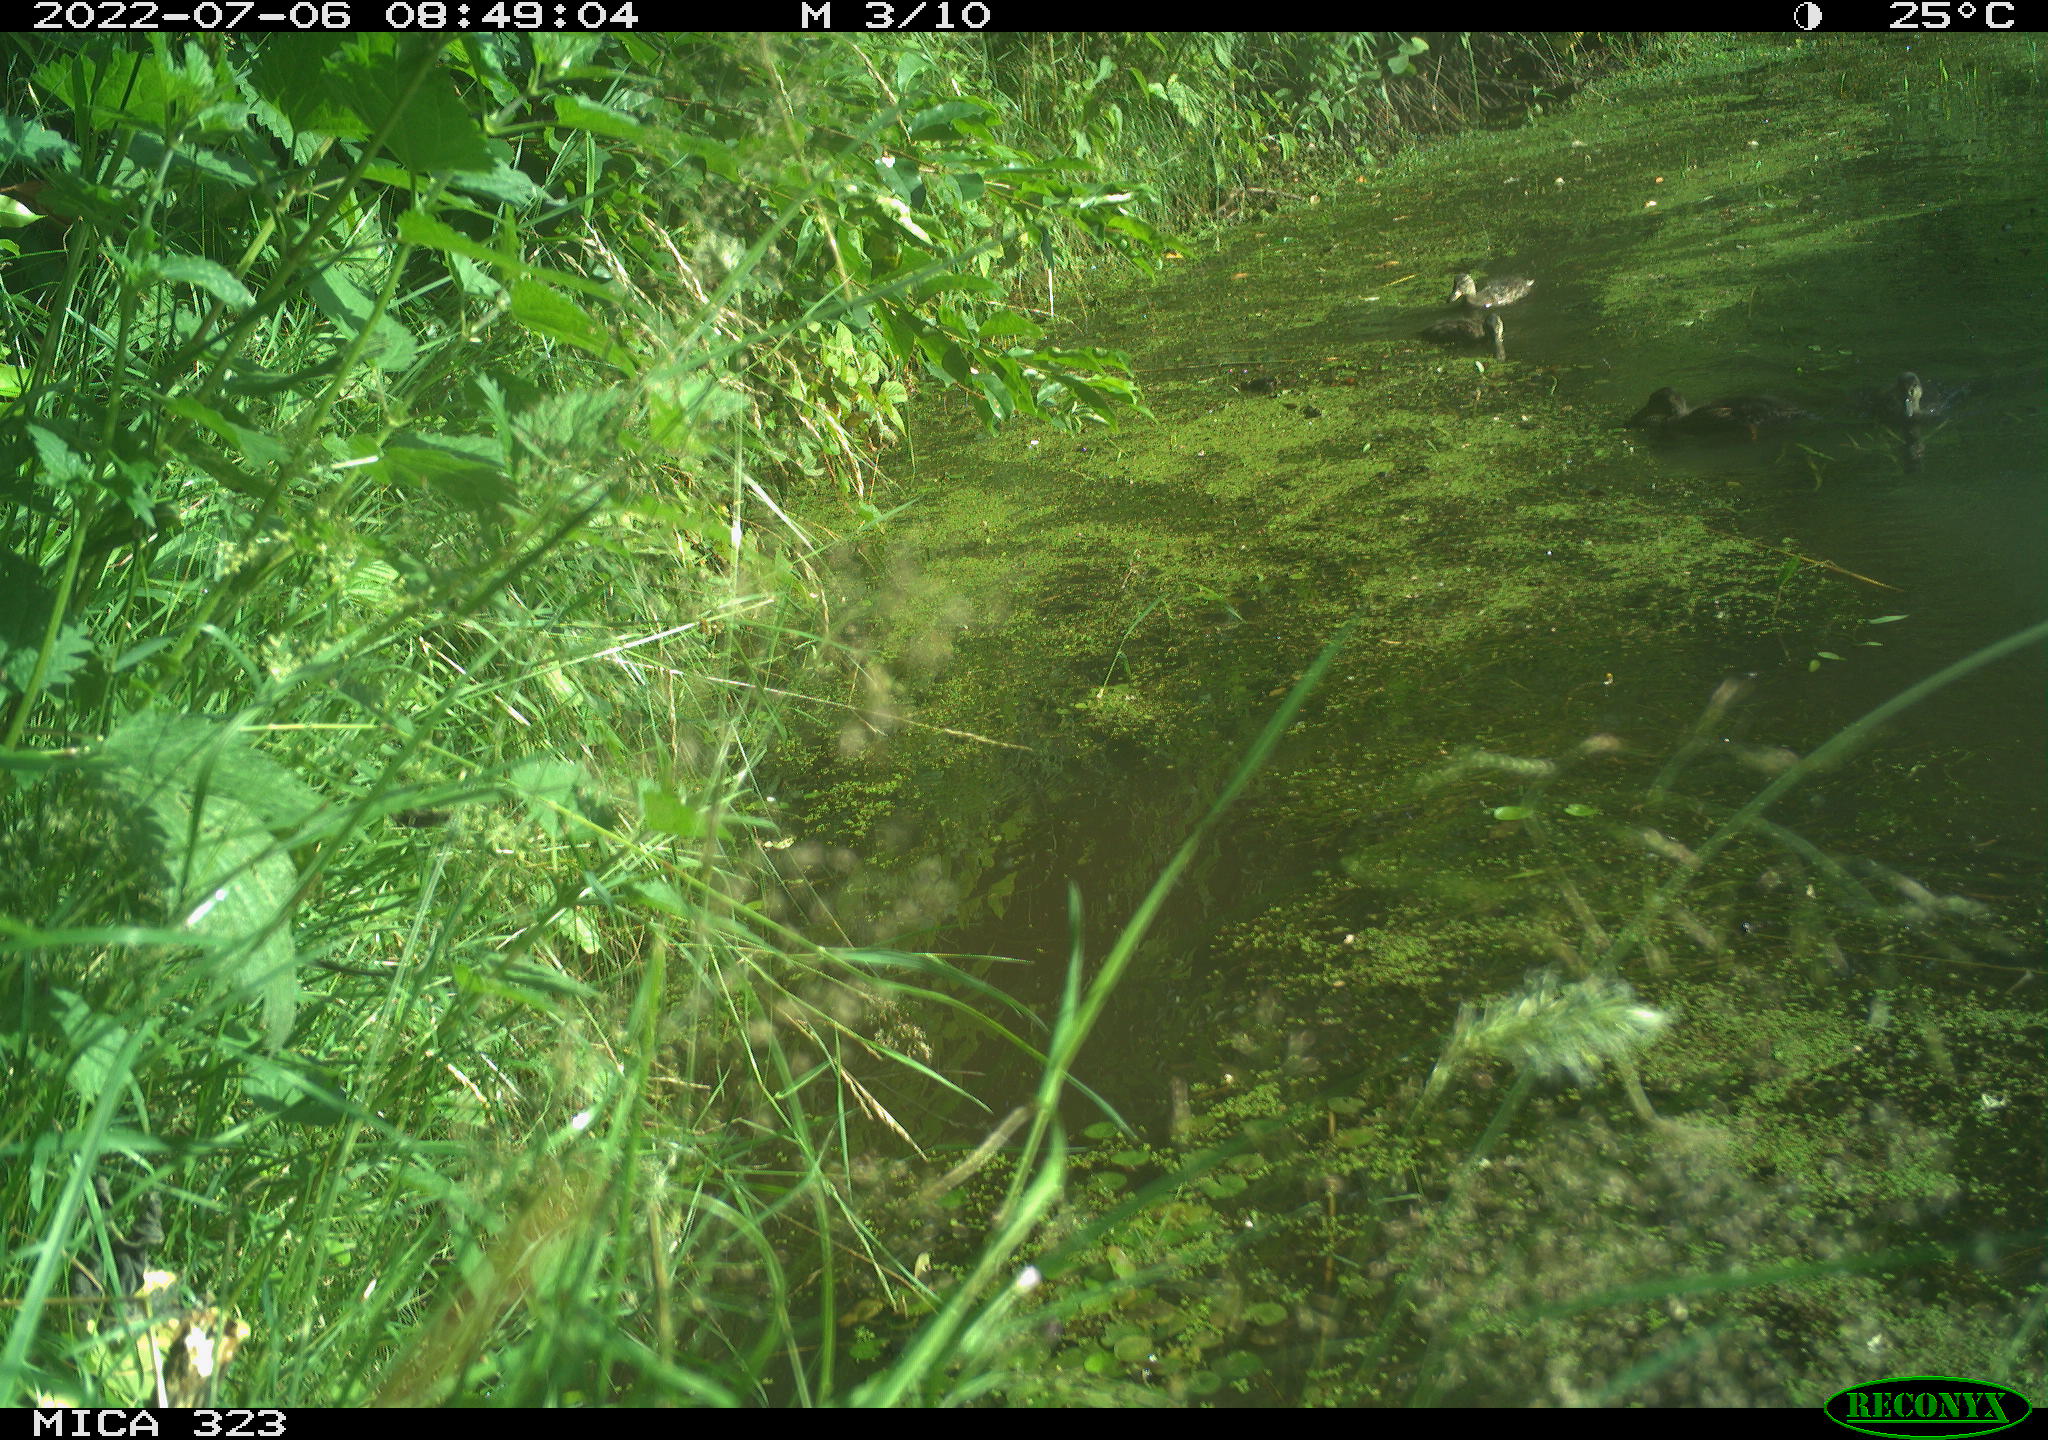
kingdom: Animalia
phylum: Chordata
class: Aves
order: Anseriformes
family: Anatidae
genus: Anas
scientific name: Anas
